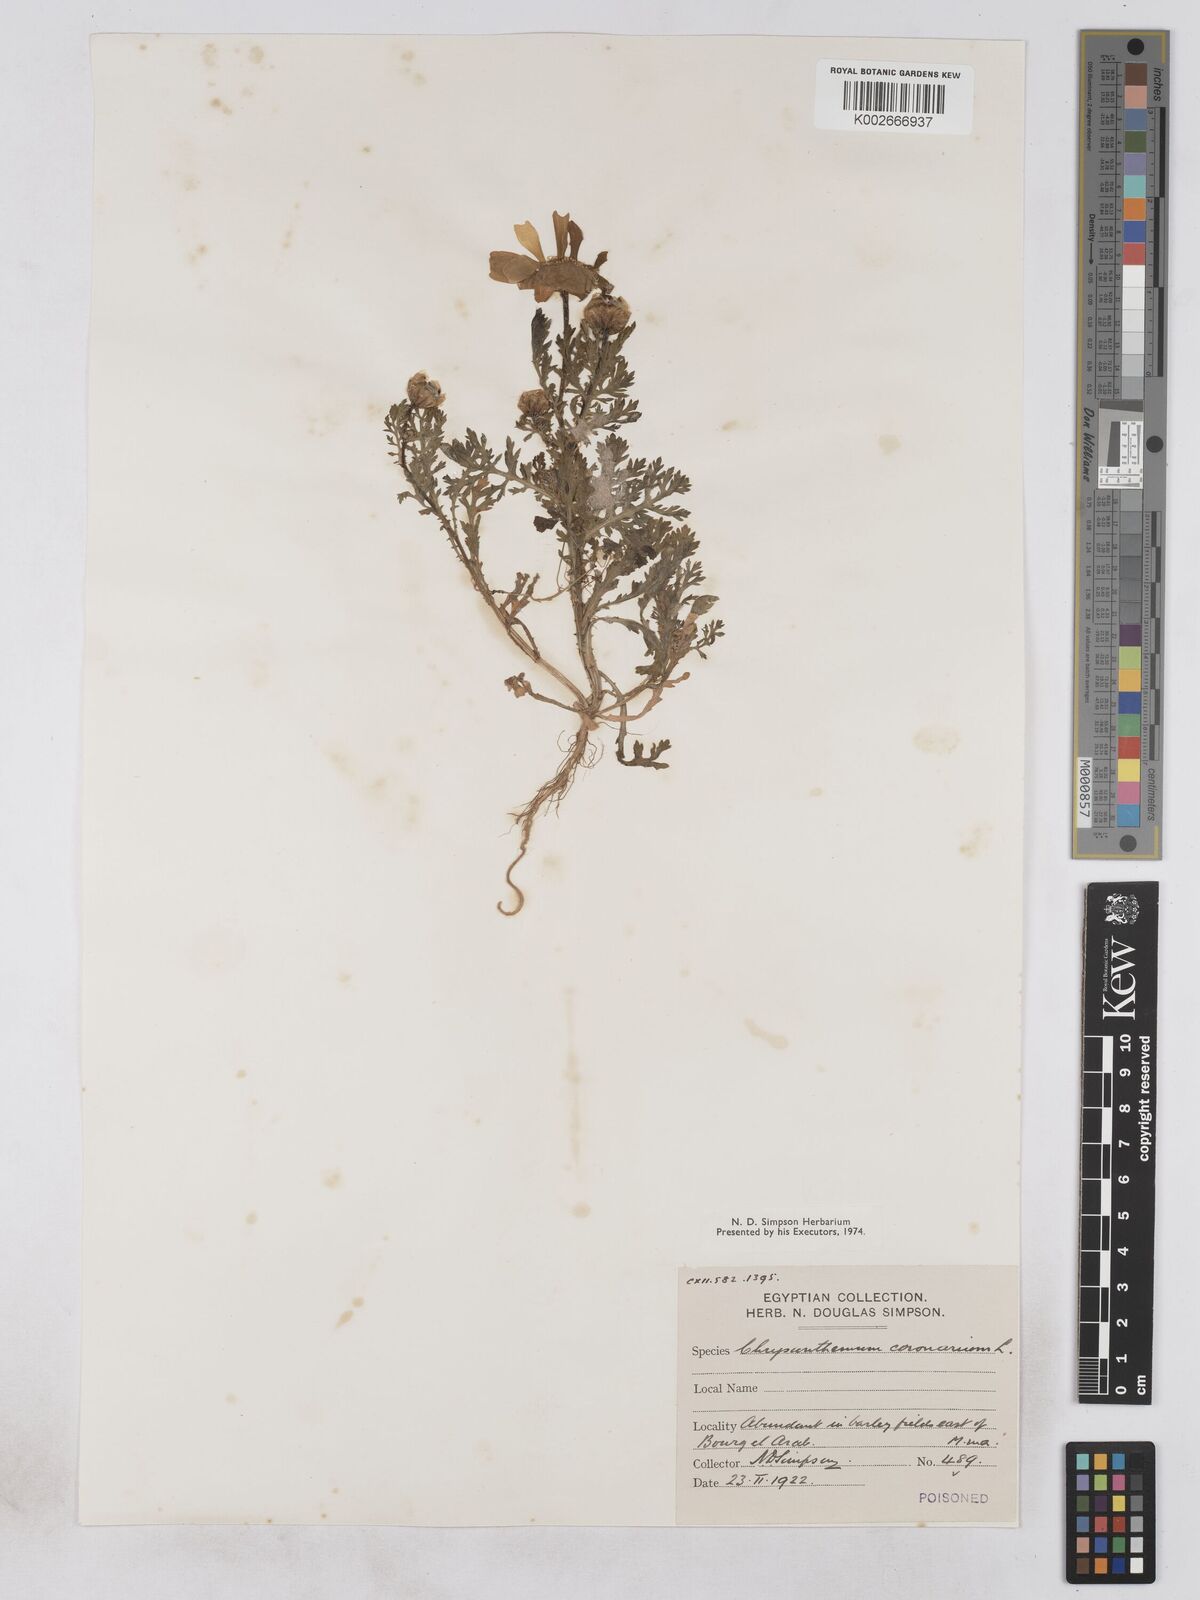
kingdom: Plantae
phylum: Tracheophyta
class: Magnoliopsida
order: Asterales
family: Asteraceae
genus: Glebionis
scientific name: Glebionis coronaria
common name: Crowndaisy
